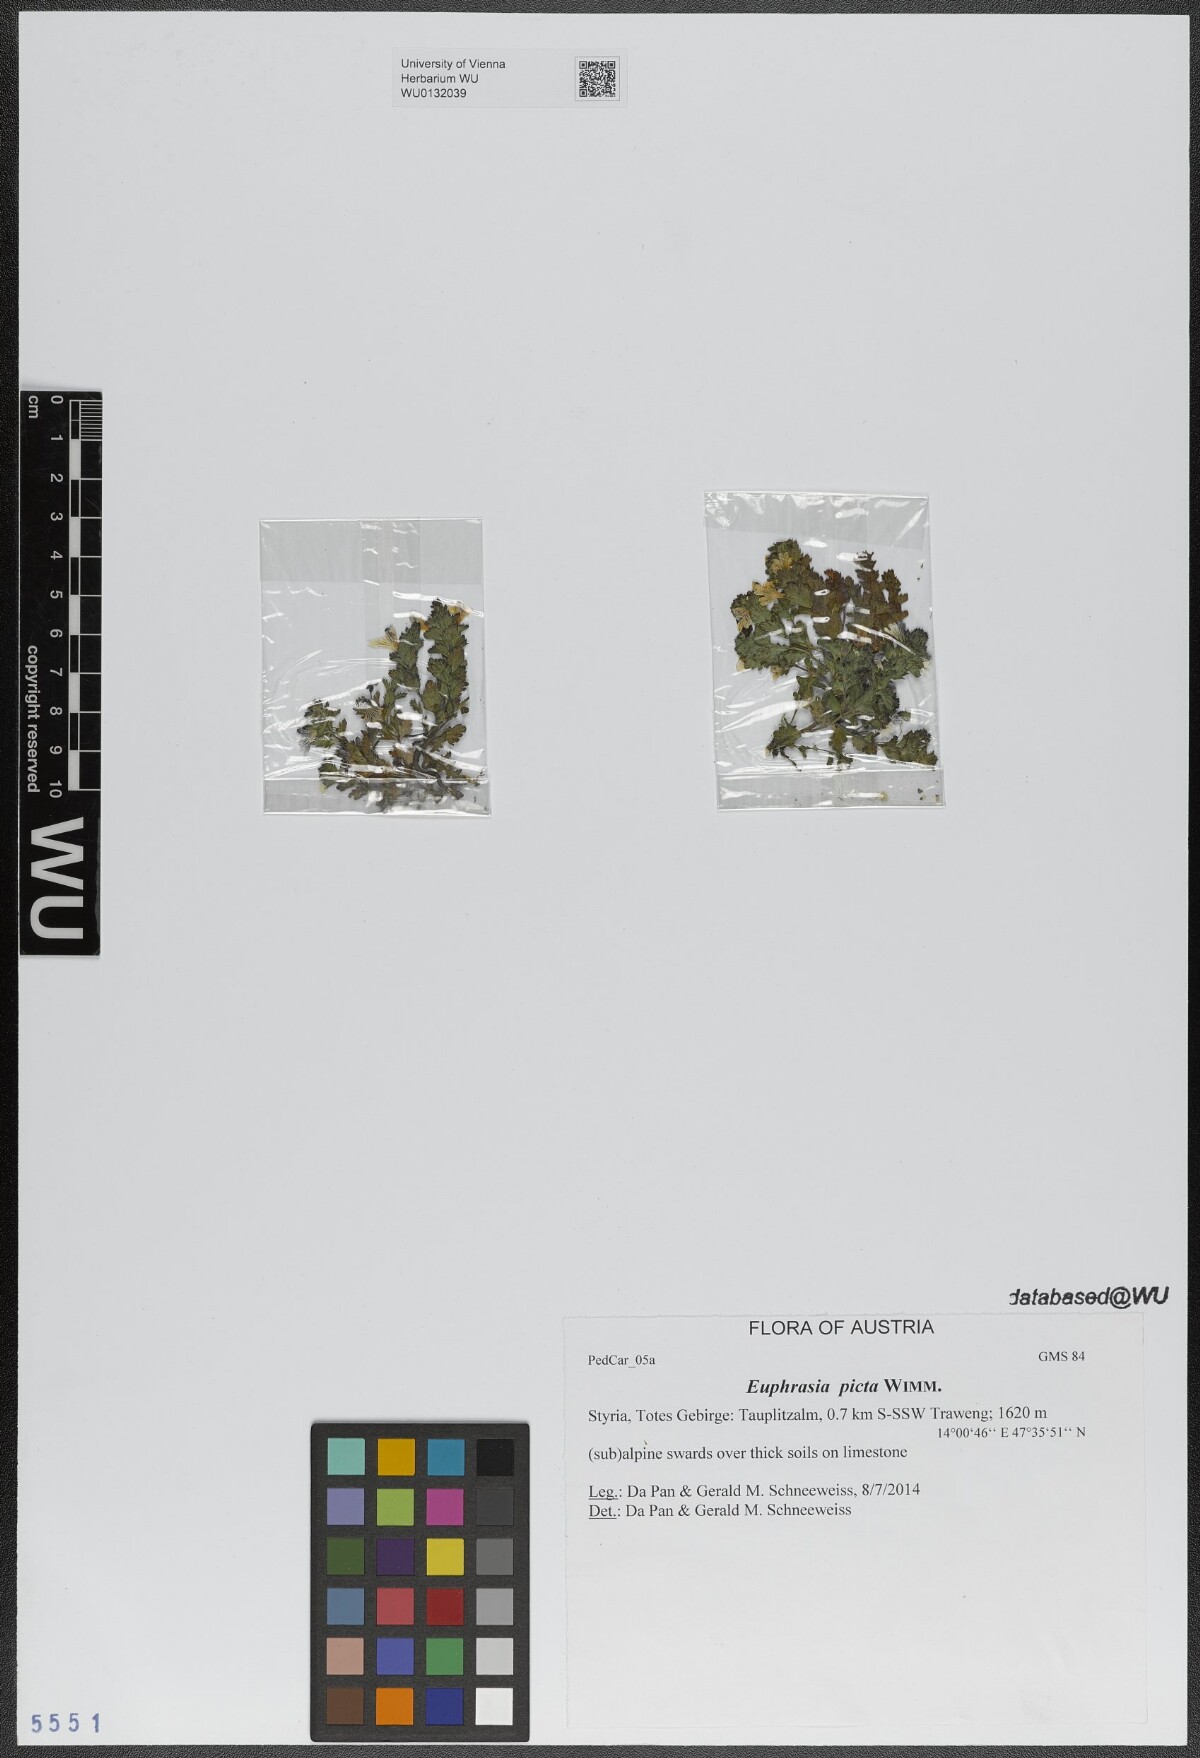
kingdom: Plantae
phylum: Tracheophyta
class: Magnoliopsida
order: Lamiales
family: Orobanchaceae
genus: Euphrasia
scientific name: Euphrasia picta
